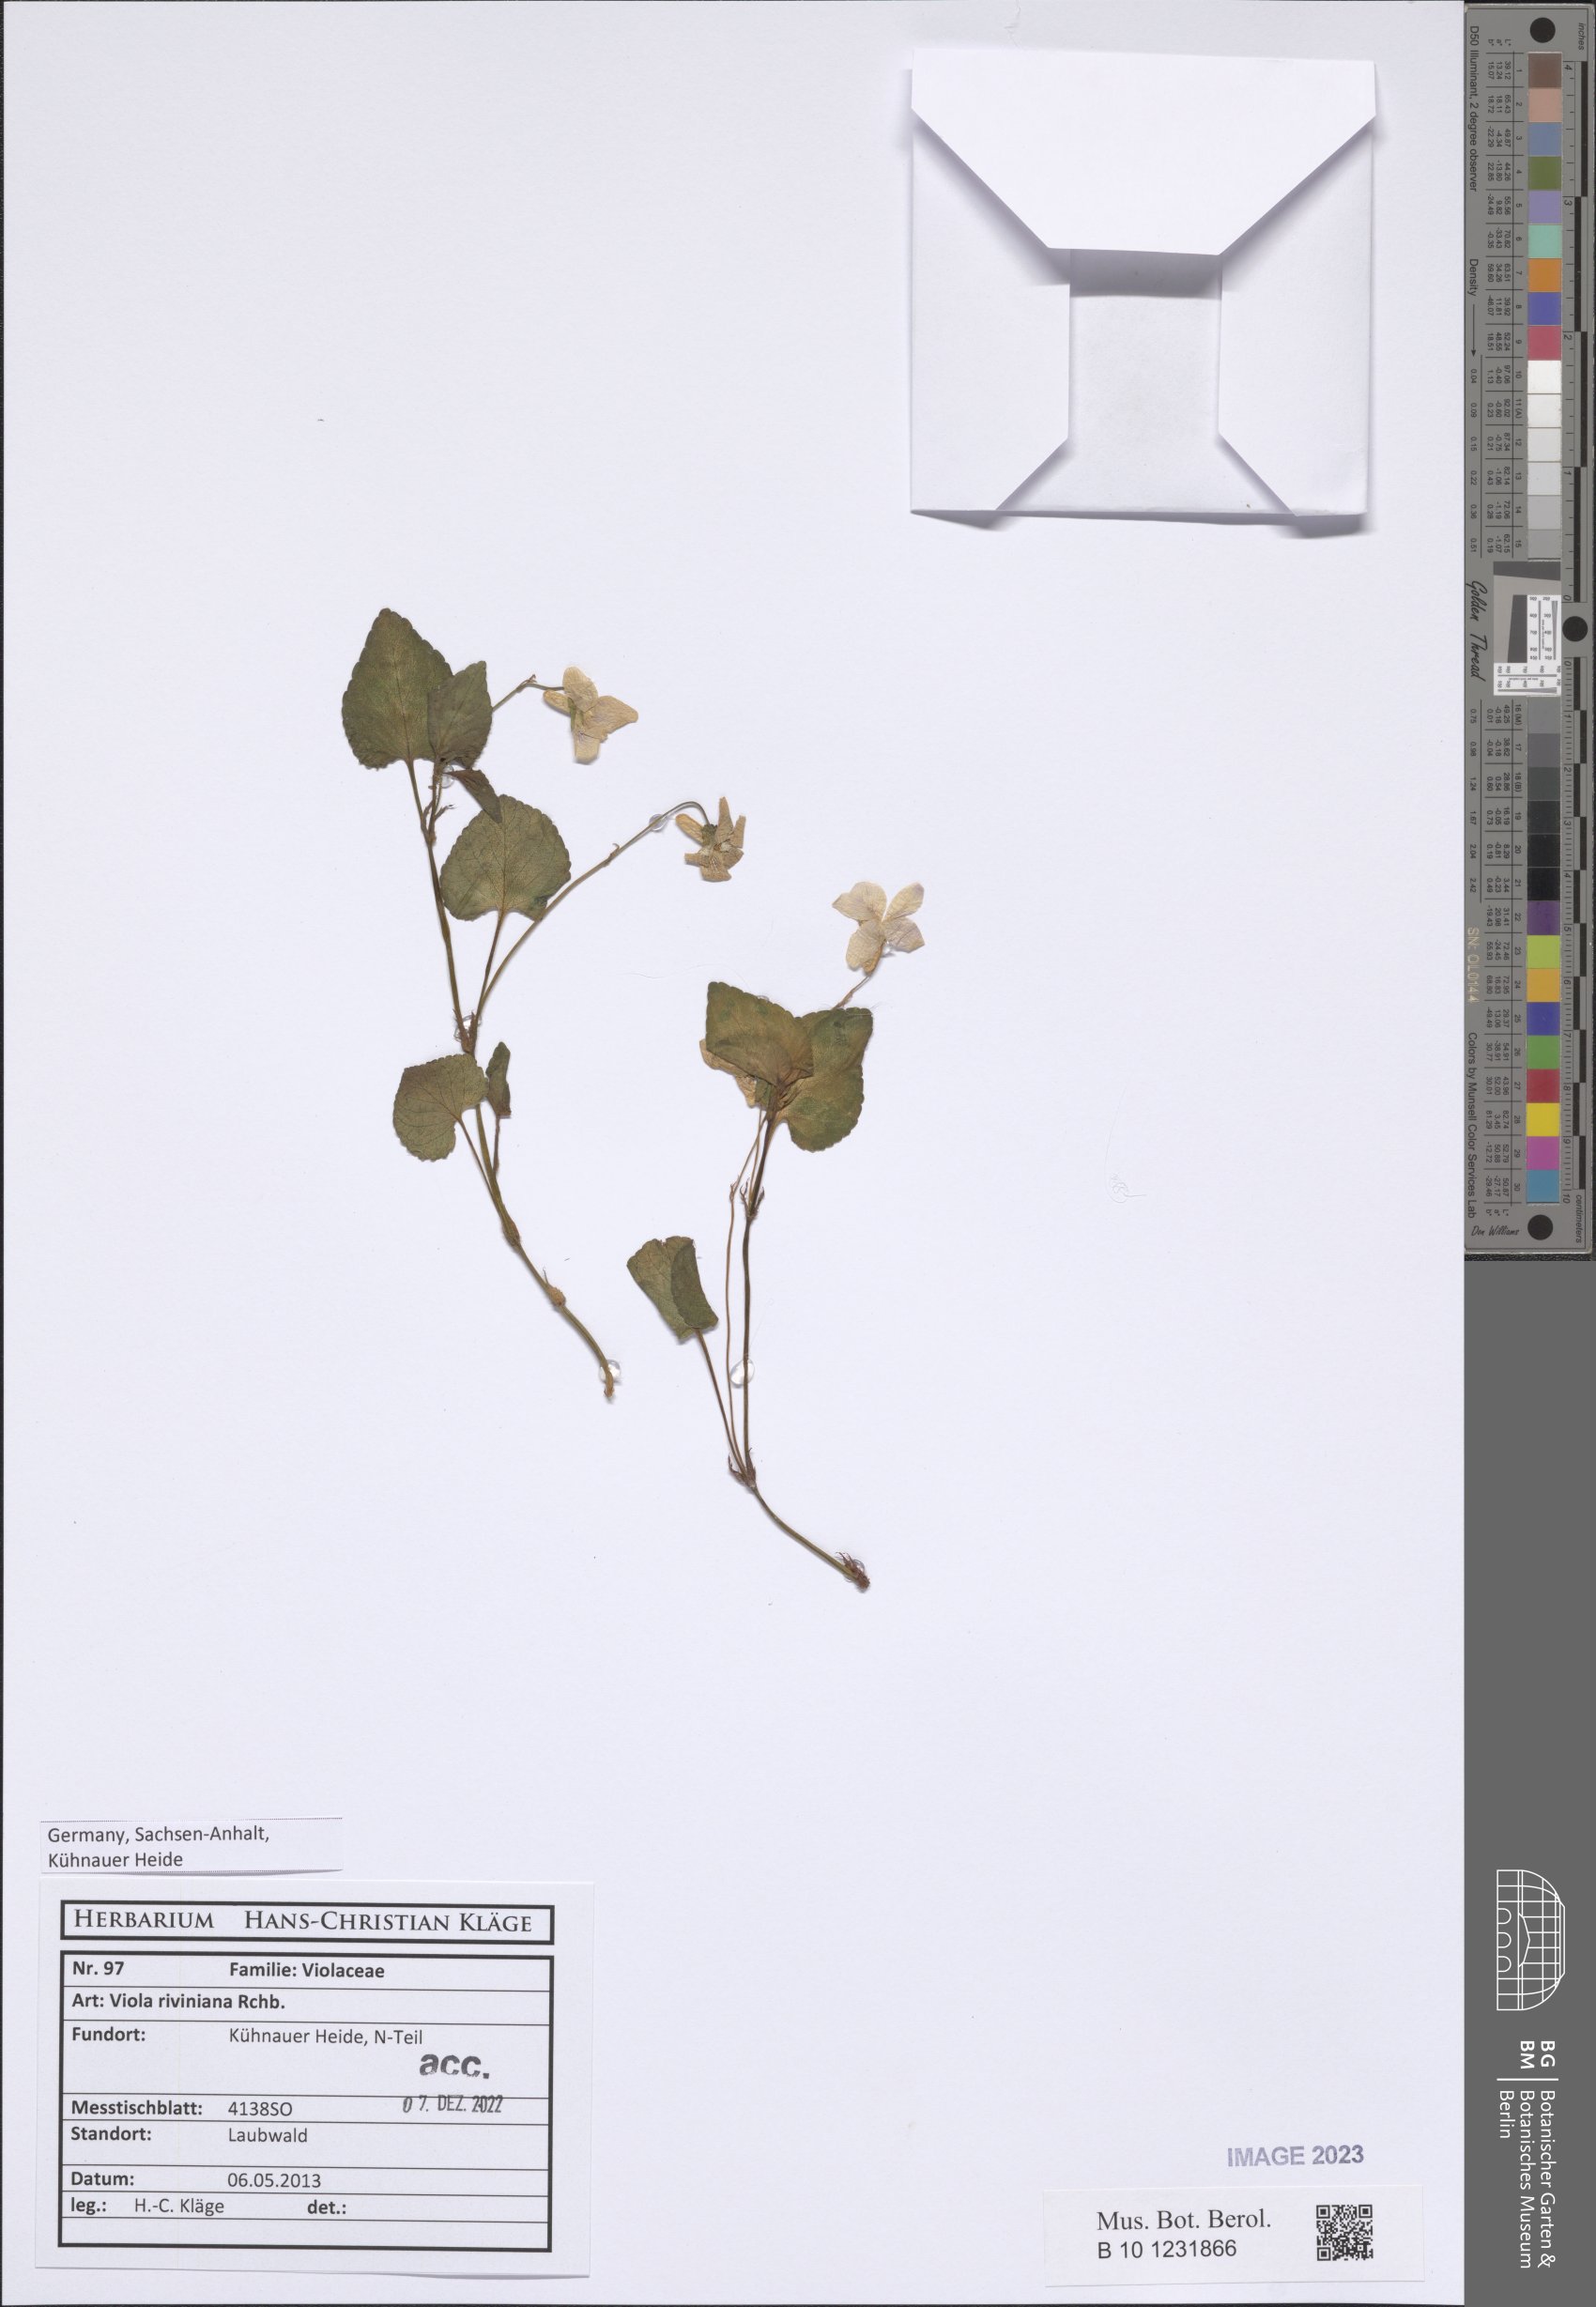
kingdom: Plantae
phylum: Tracheophyta
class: Magnoliopsida
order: Malpighiales
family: Violaceae
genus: Viola
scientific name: Viola riviniana
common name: Common dog-violet
